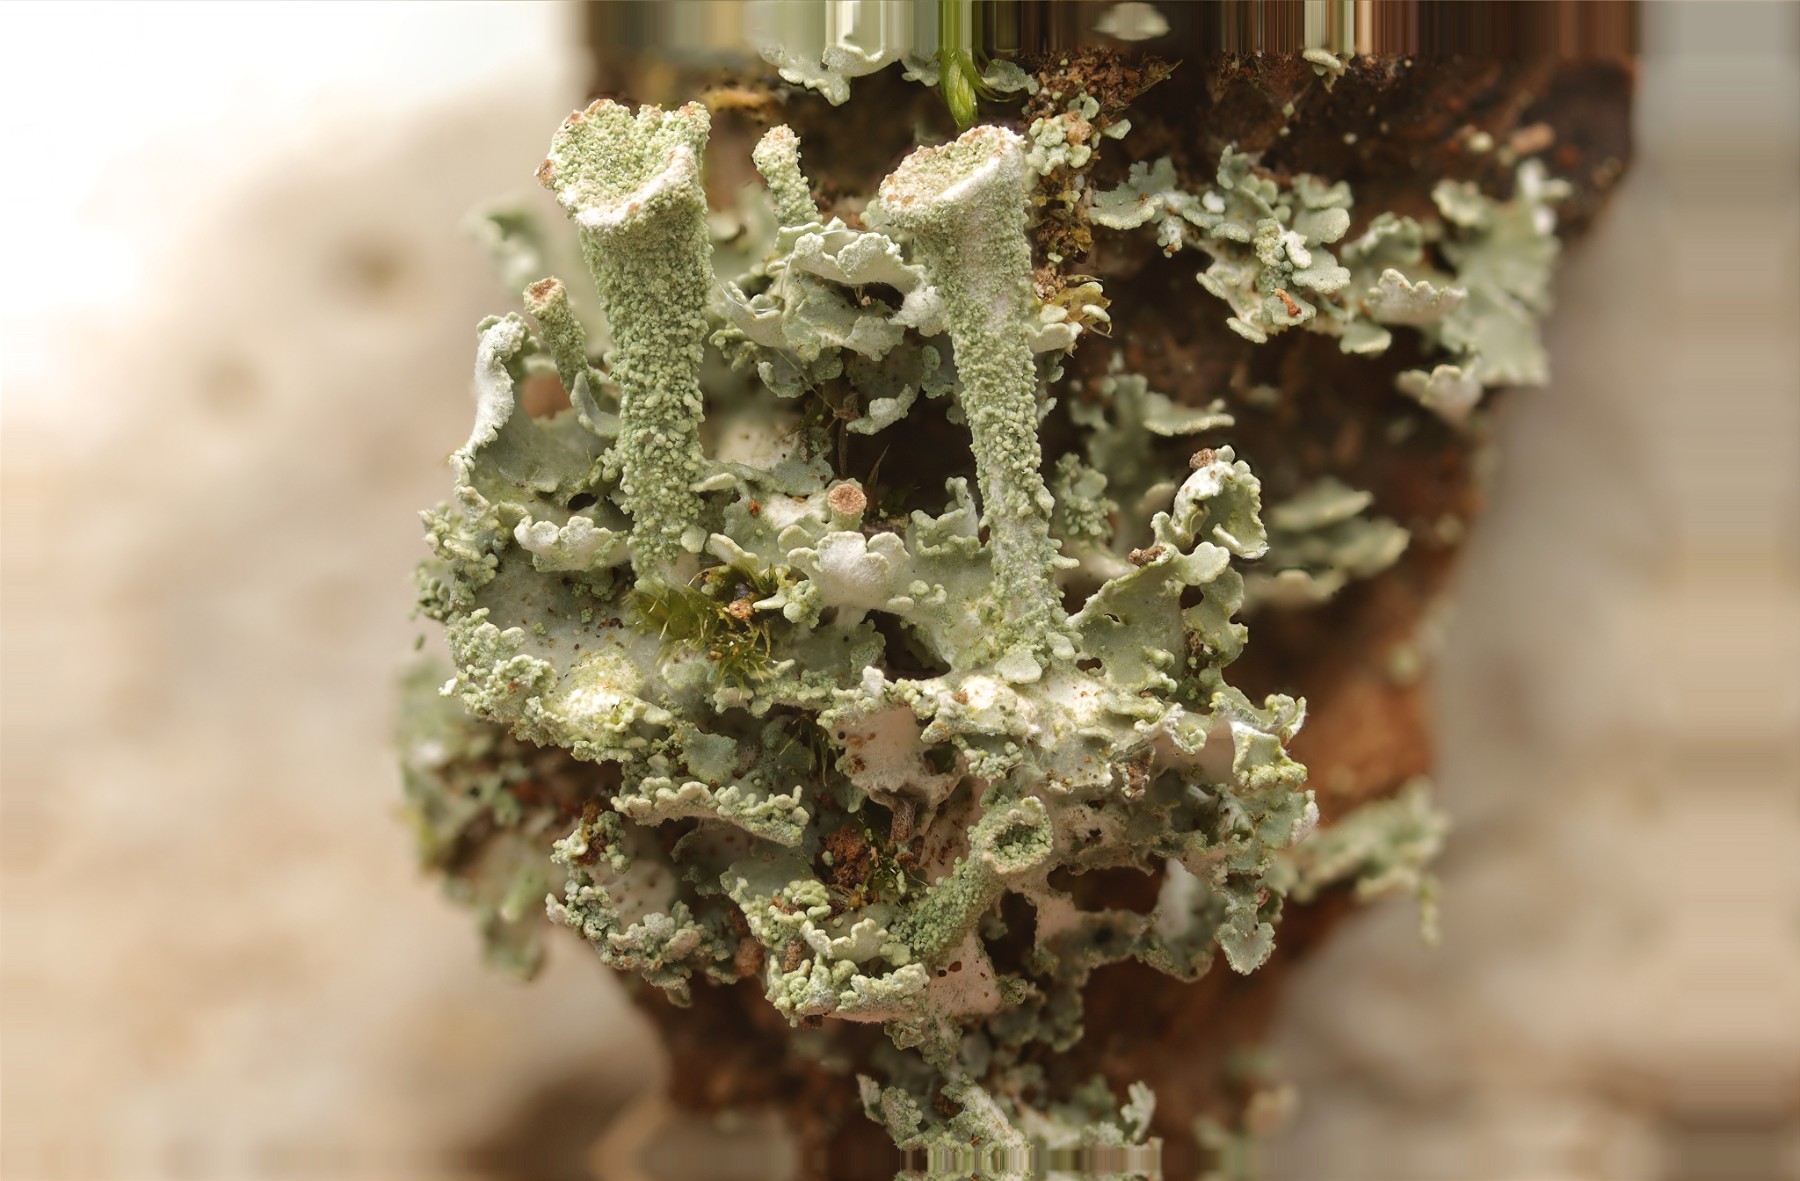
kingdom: Fungi
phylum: Ascomycota
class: Lecanoromycetes
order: Lecanorales
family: Cladoniaceae
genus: Cladonia
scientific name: Cladonia
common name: brungrøn bægerlav
